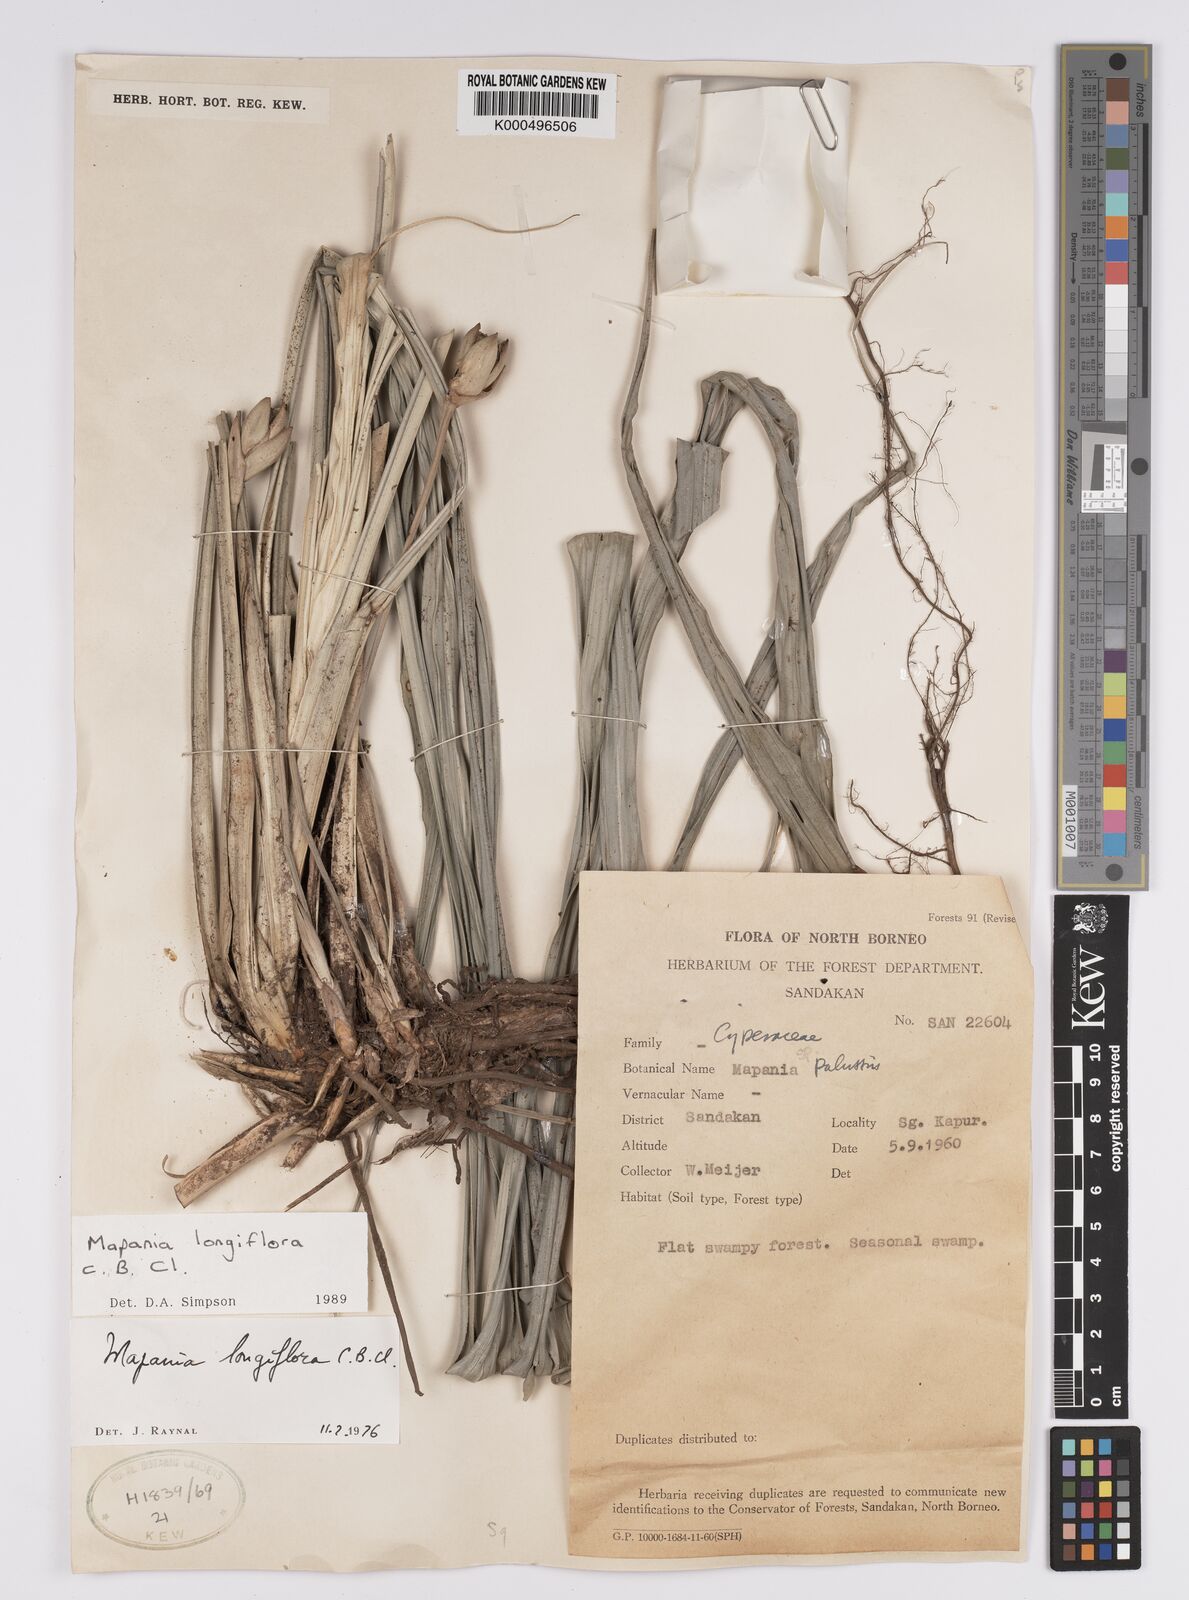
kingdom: Plantae
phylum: Tracheophyta
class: Liliopsida
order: Poales
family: Cyperaceae
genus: Mapania
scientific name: Mapania longiflora
